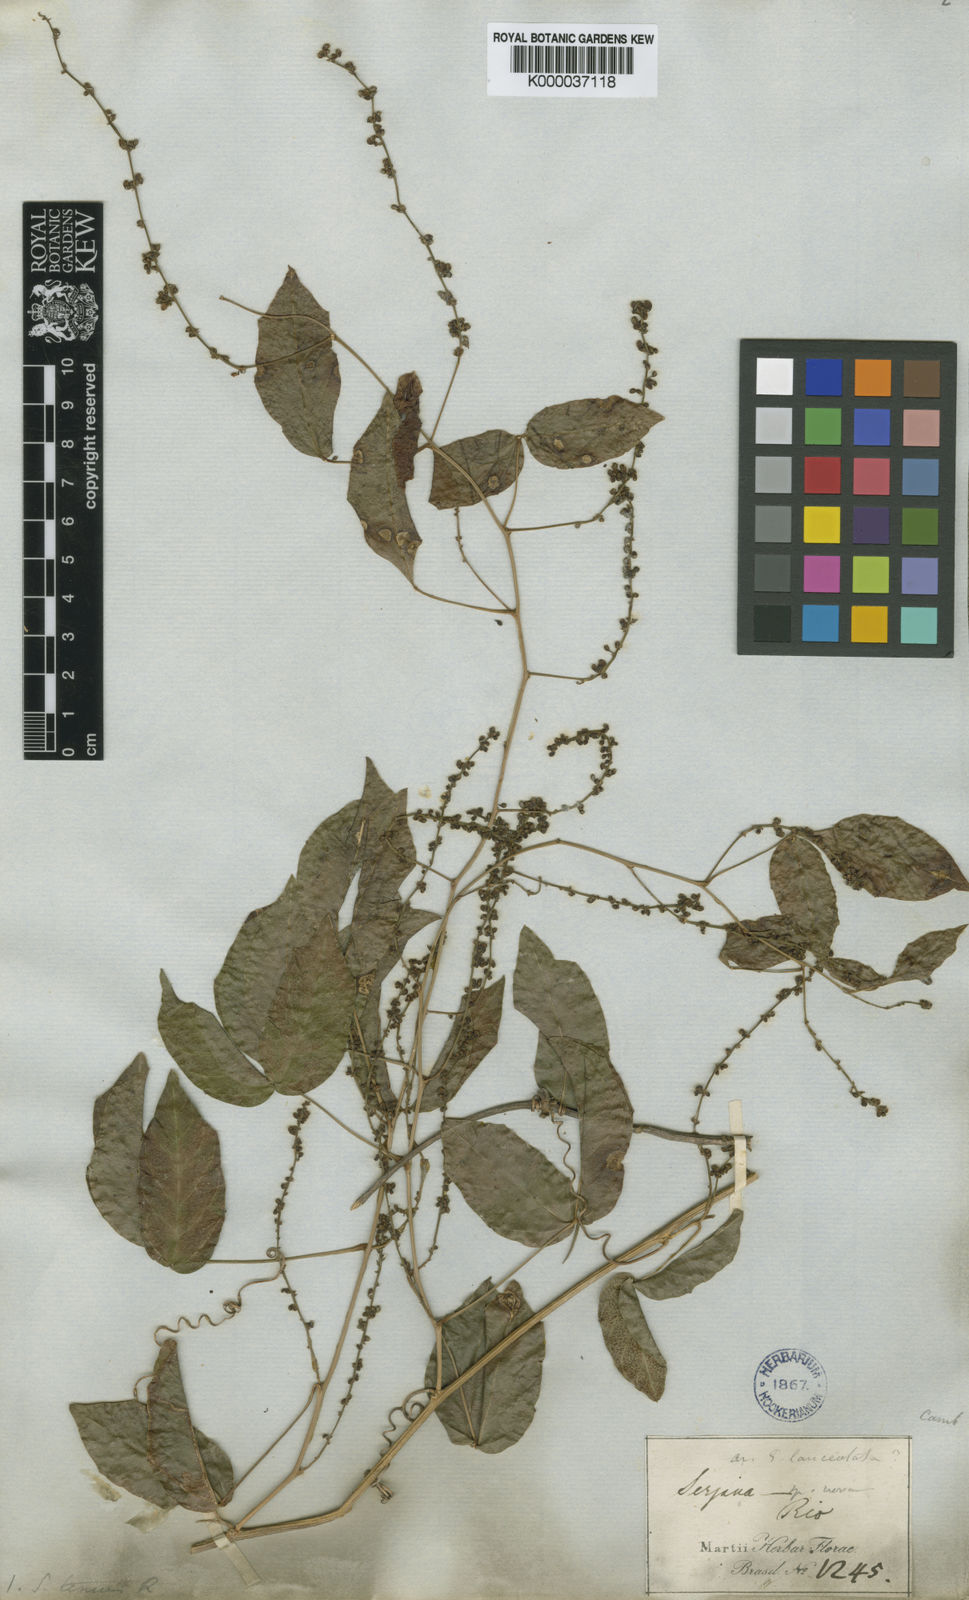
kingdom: Plantae
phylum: Tracheophyta
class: Magnoliopsida
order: Sapindales
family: Sapindaceae
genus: Serjania
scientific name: Serjania tenuis
